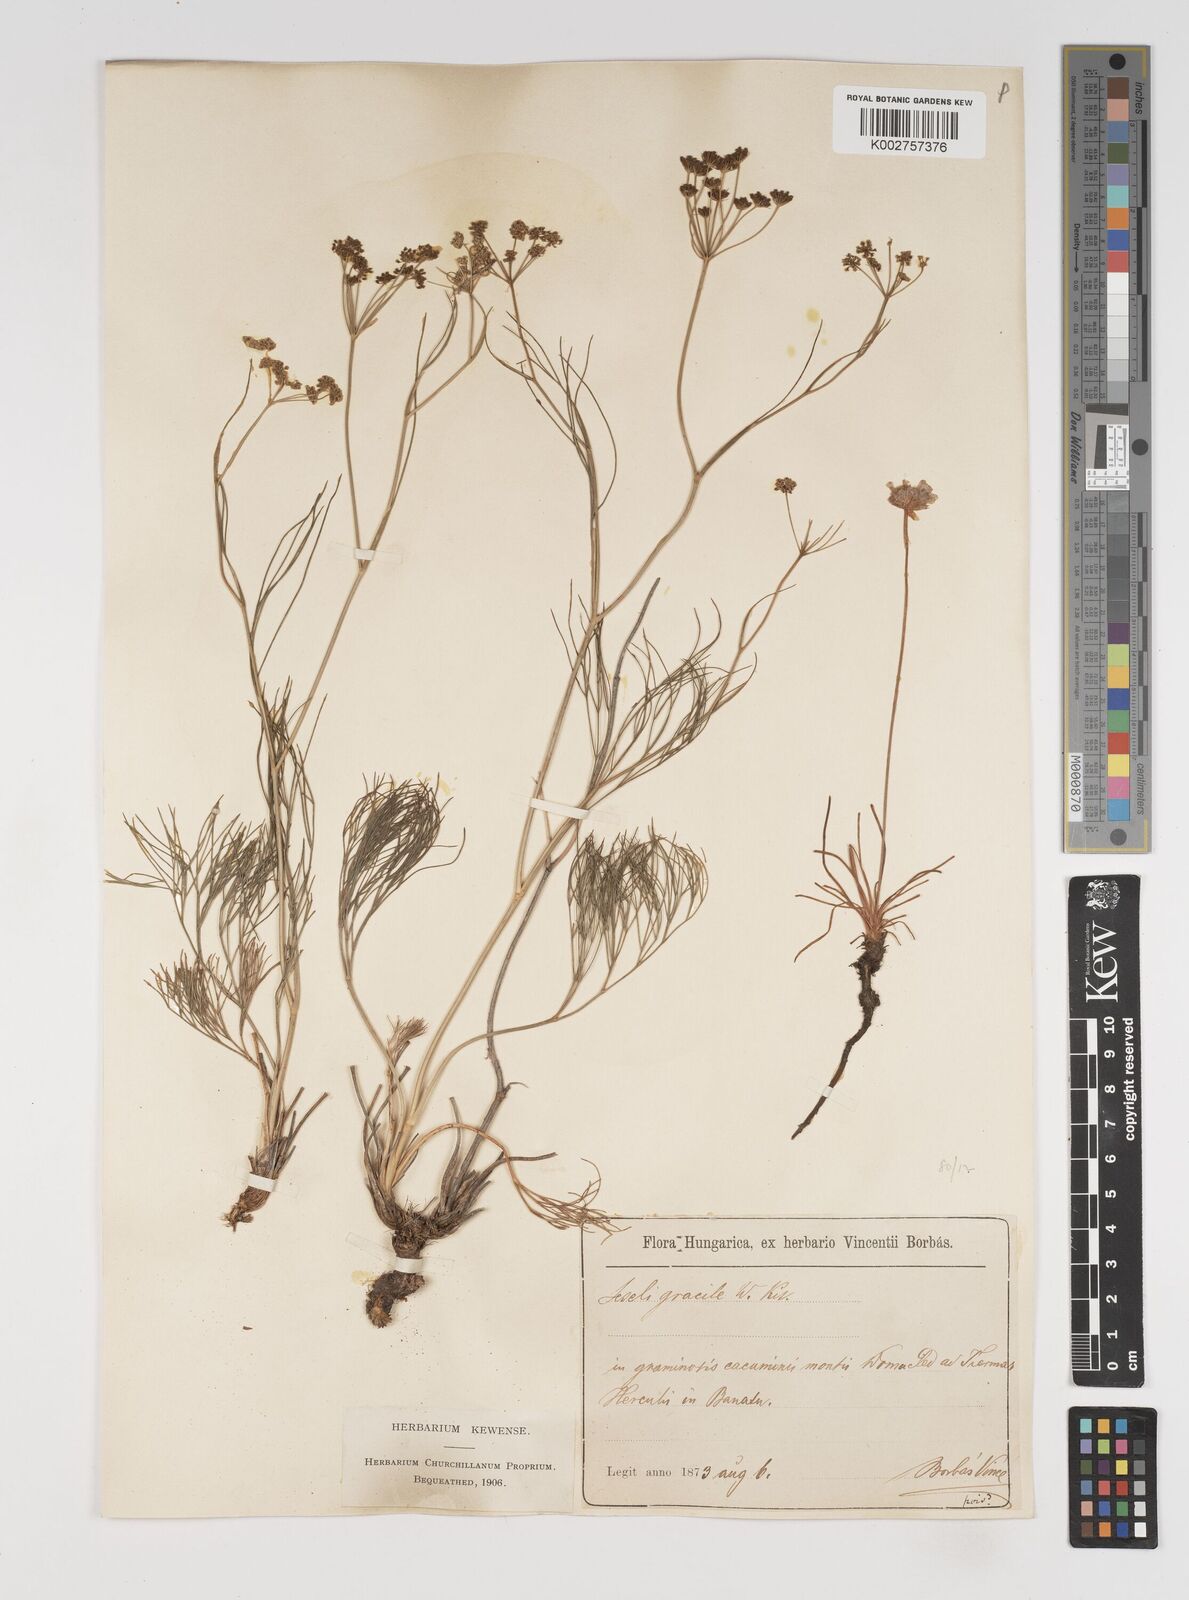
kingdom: Plantae
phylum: Tracheophyta
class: Magnoliopsida
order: Apiales
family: Apiaceae
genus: Seseli
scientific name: Seseli gracile
